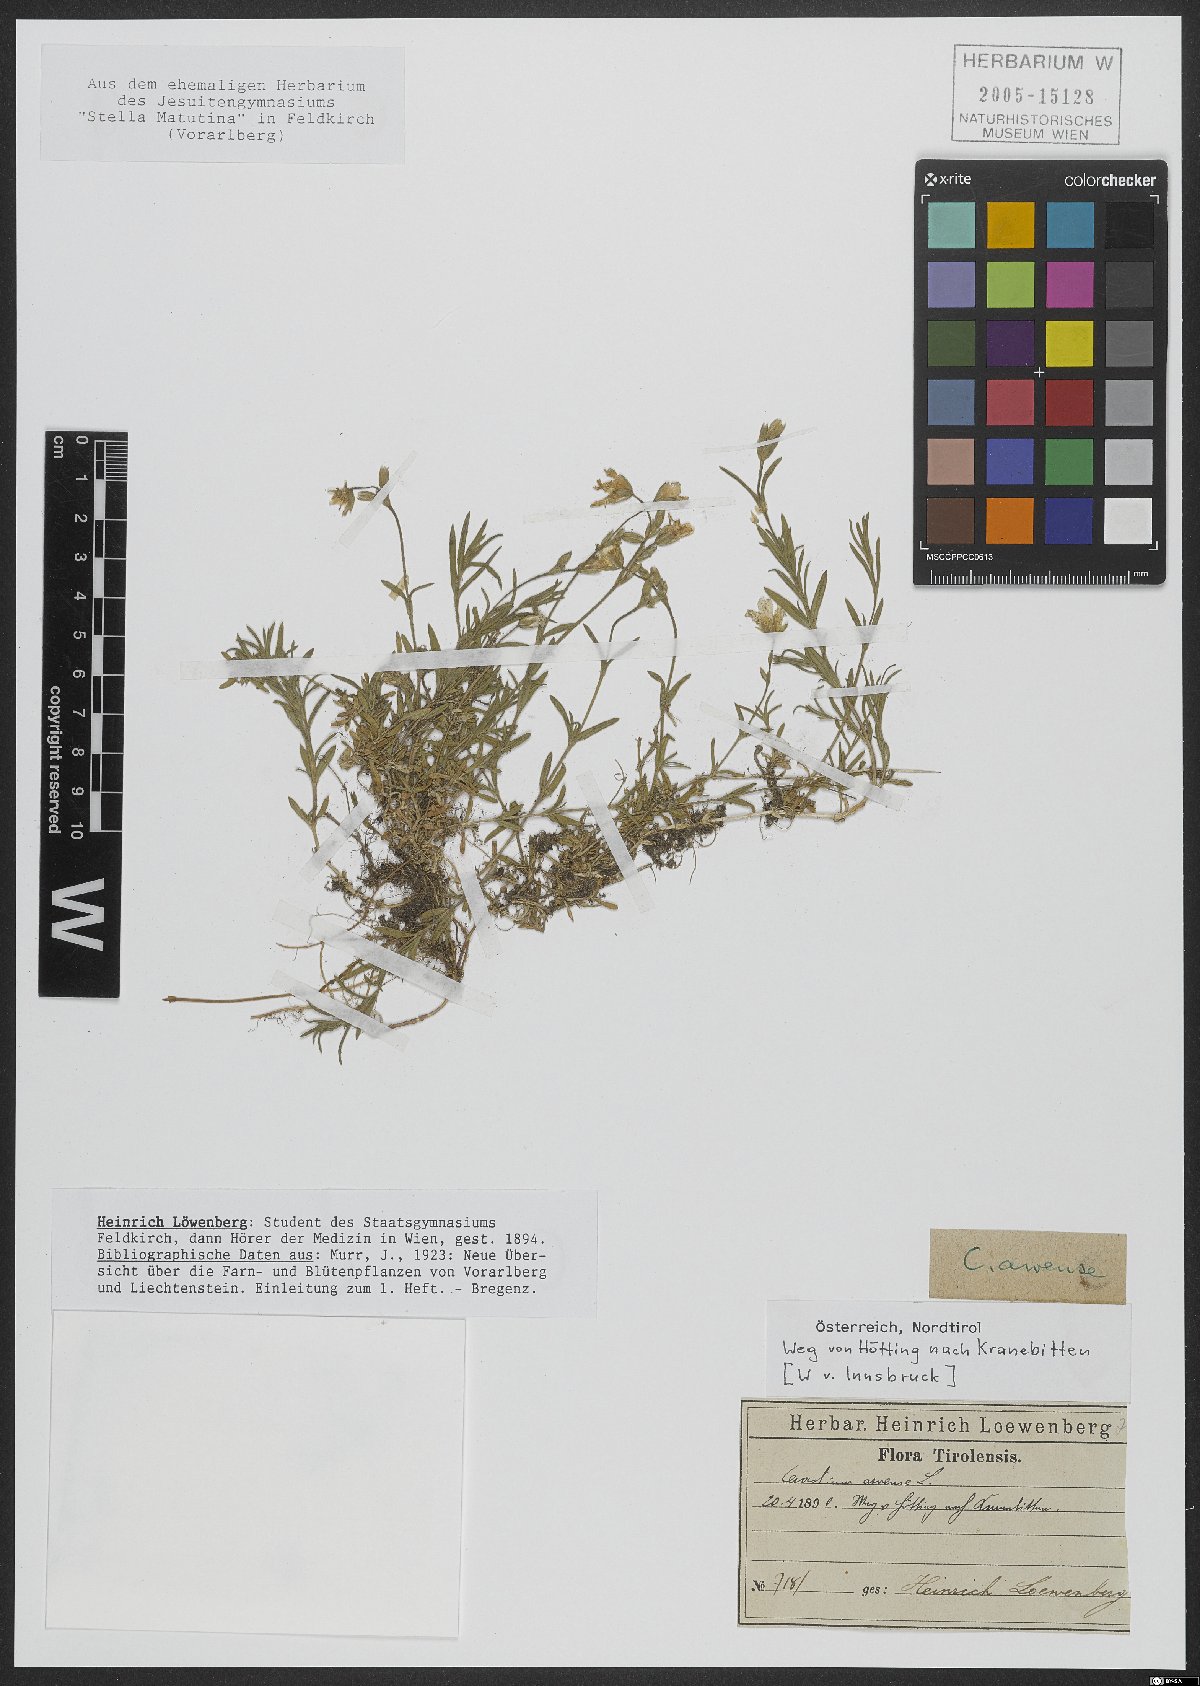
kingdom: Plantae
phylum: Tracheophyta
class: Magnoliopsida
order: Caryophyllales
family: Caryophyllaceae
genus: Cerastium
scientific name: Cerastium arvense
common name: Field mouse-ear
